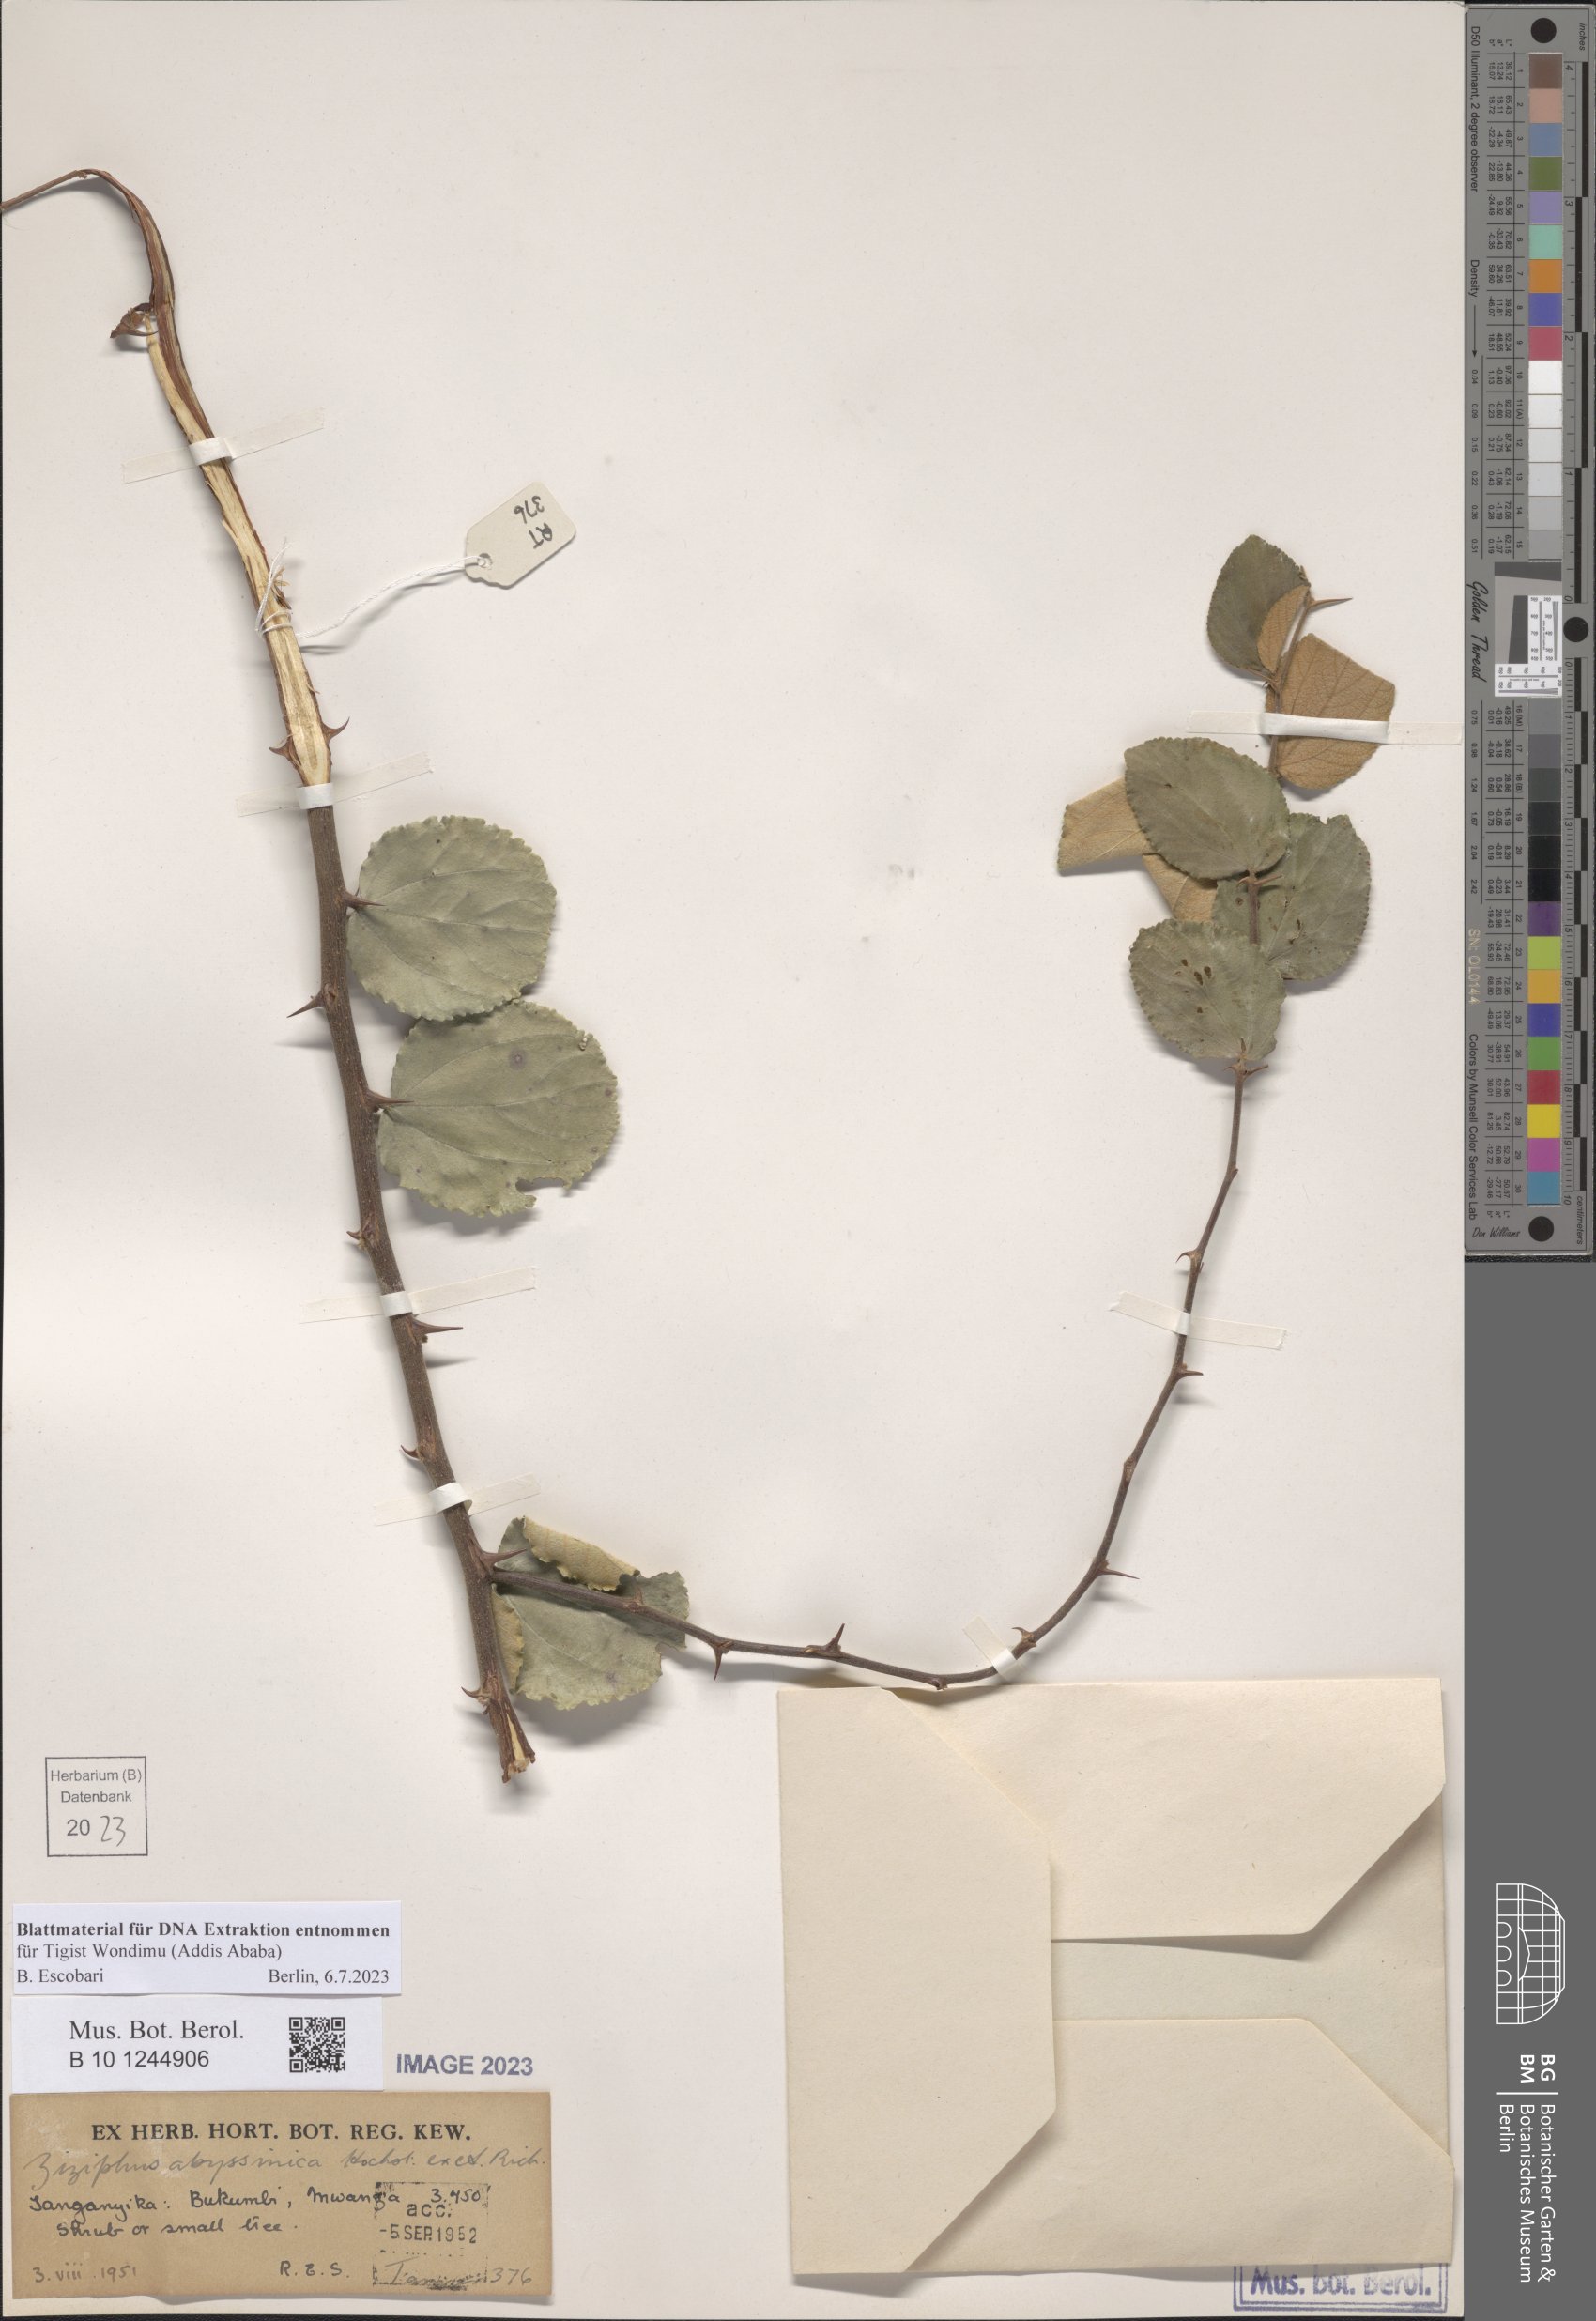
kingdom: Plantae
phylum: Tracheophyta
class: Magnoliopsida
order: Rosales
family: Rhamnaceae
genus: Ziziphus
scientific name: Ziziphus abyssinica
